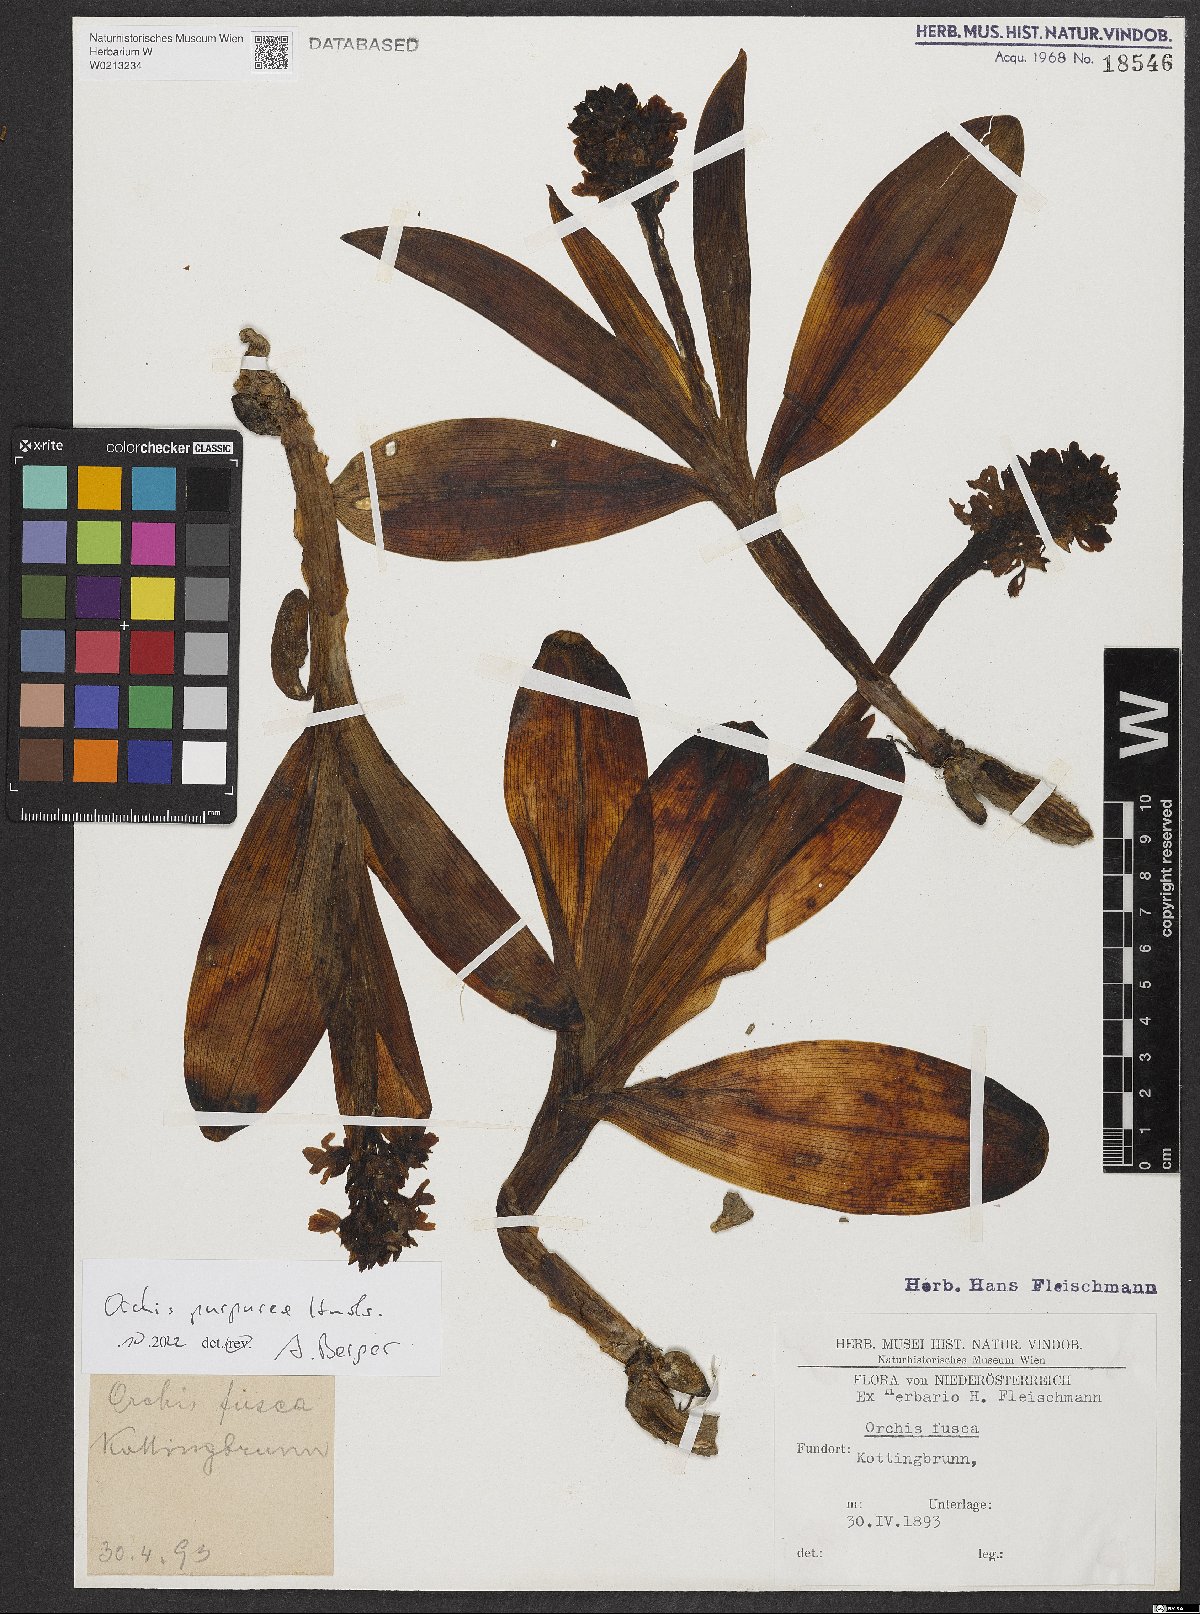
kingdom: Plantae
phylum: Tracheophyta
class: Liliopsida
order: Asparagales
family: Orchidaceae
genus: Orchis
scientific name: Orchis purpurea
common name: Lady orchid
